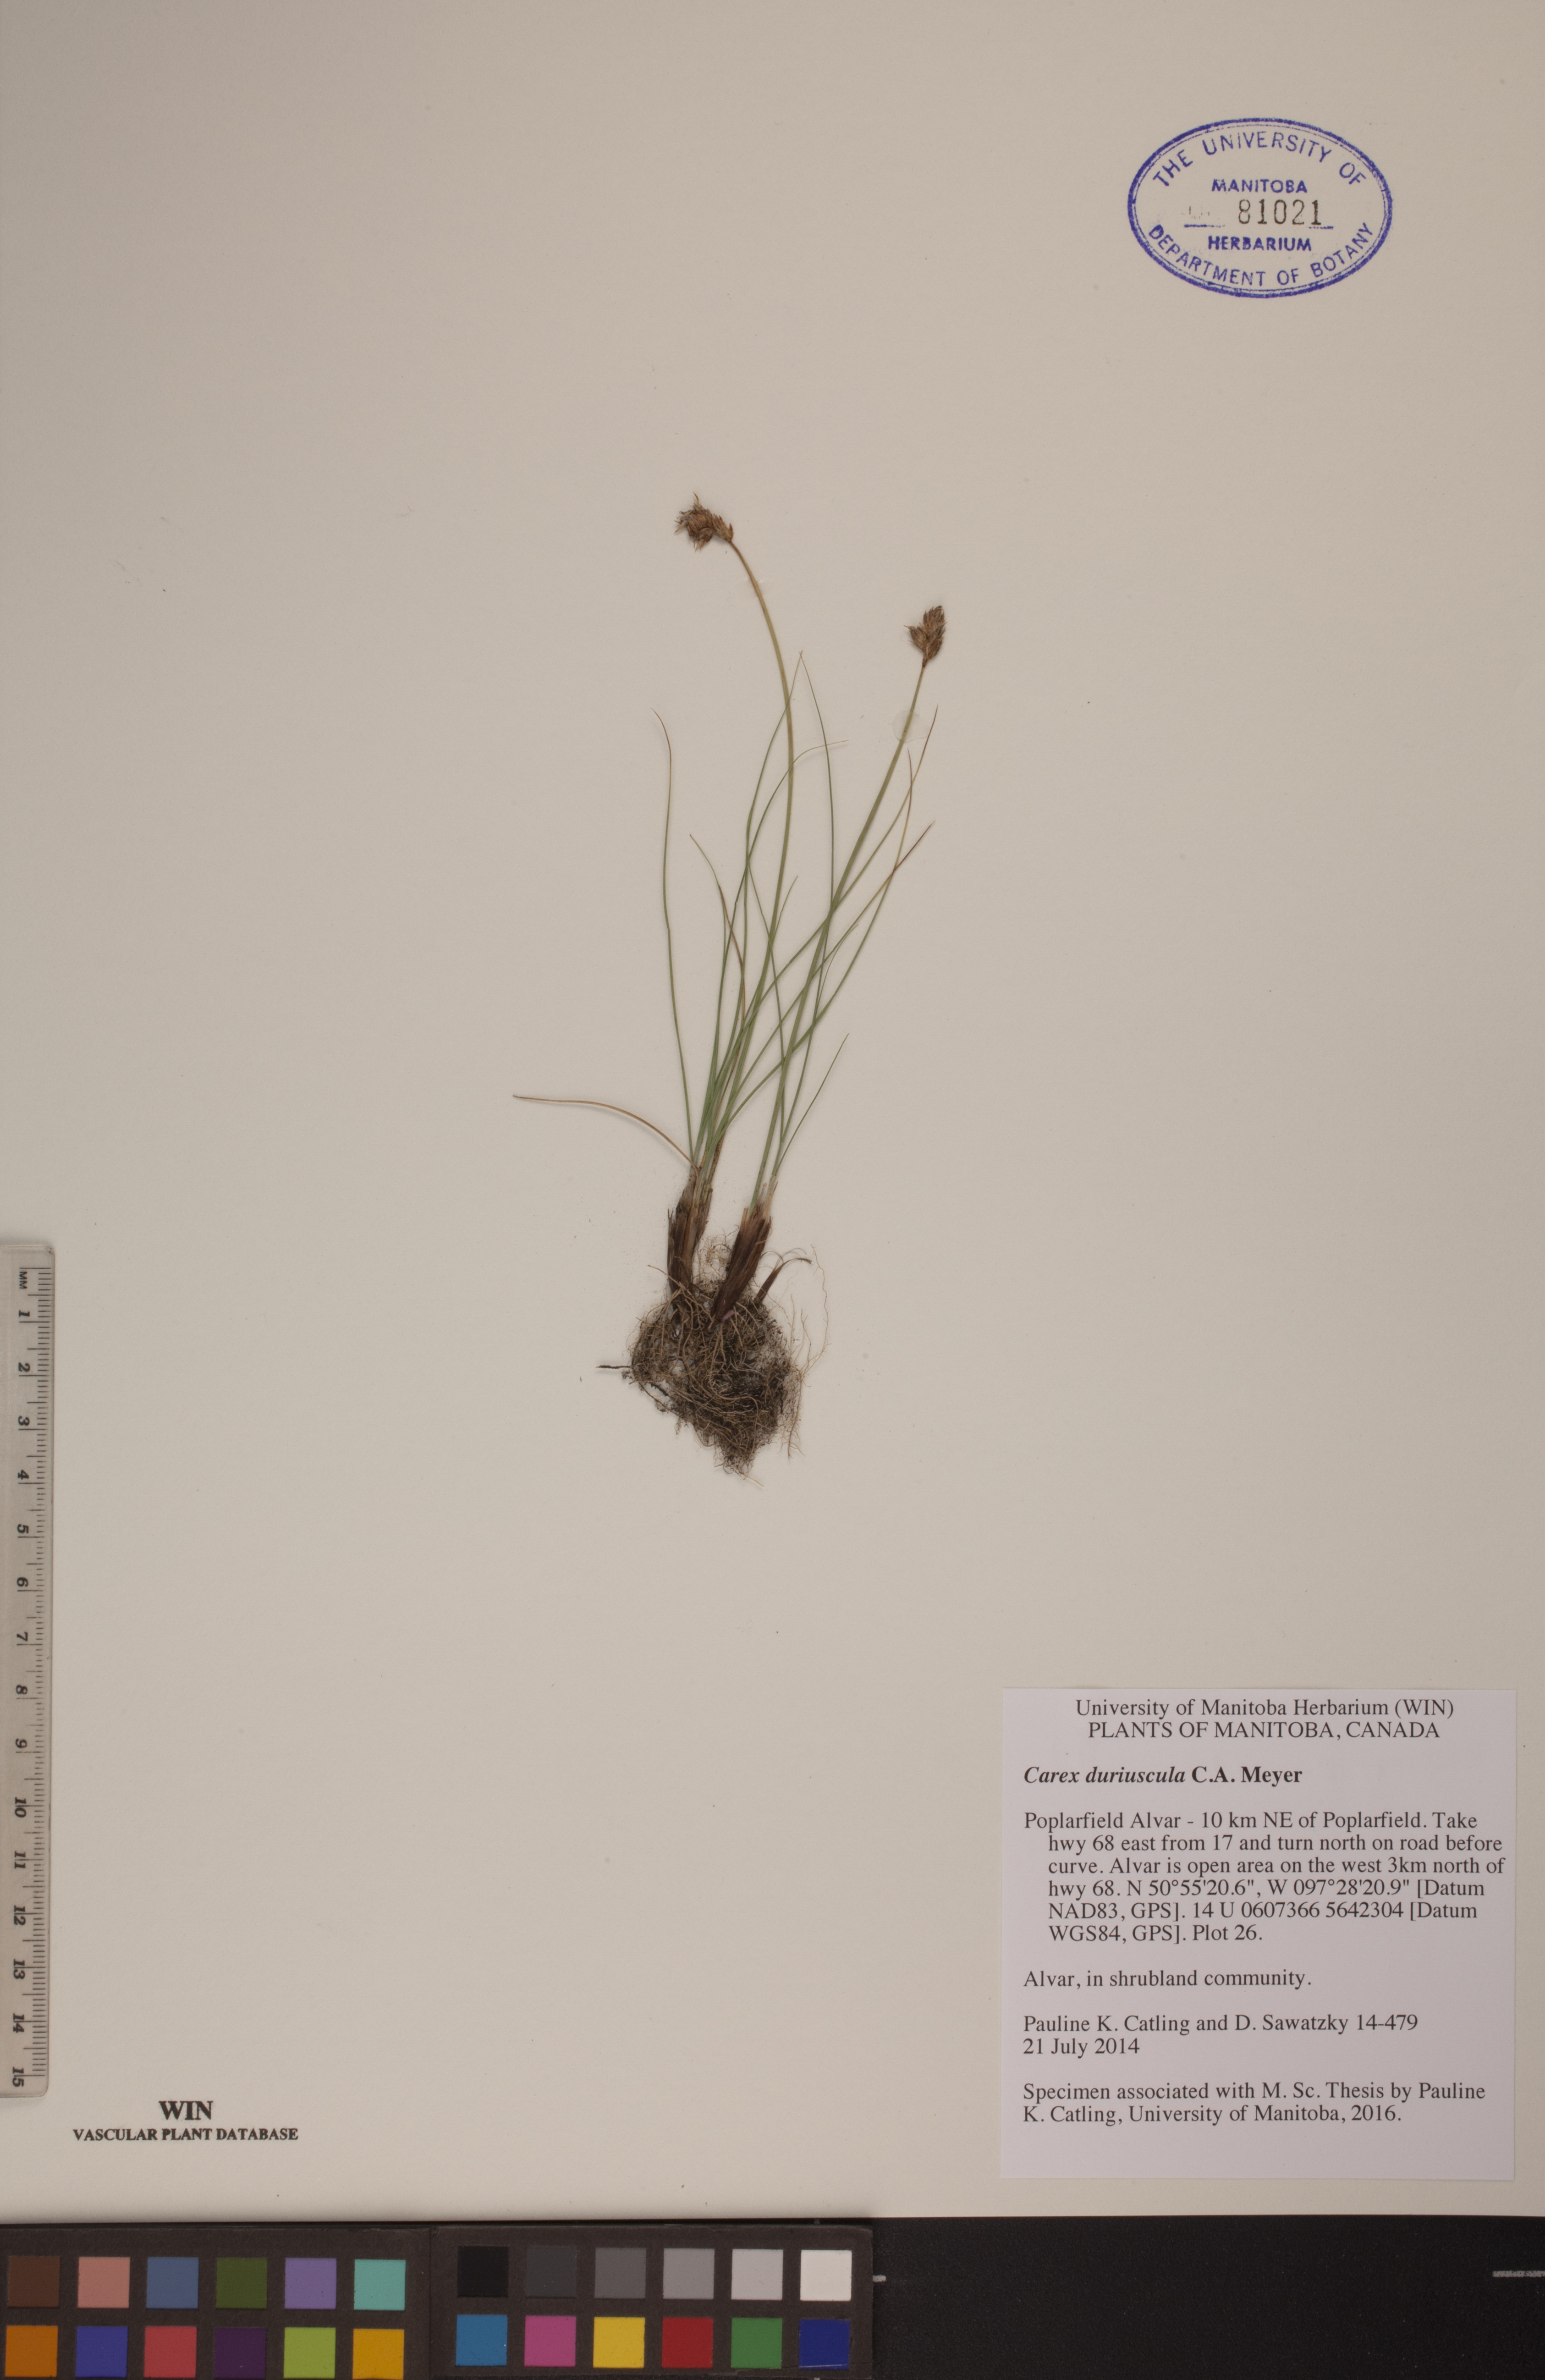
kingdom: Plantae
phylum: Tracheophyta
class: Liliopsida
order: Poales
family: Cyperaceae
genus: Carex
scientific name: Carex duriuscula
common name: Involute-leaved sedge
